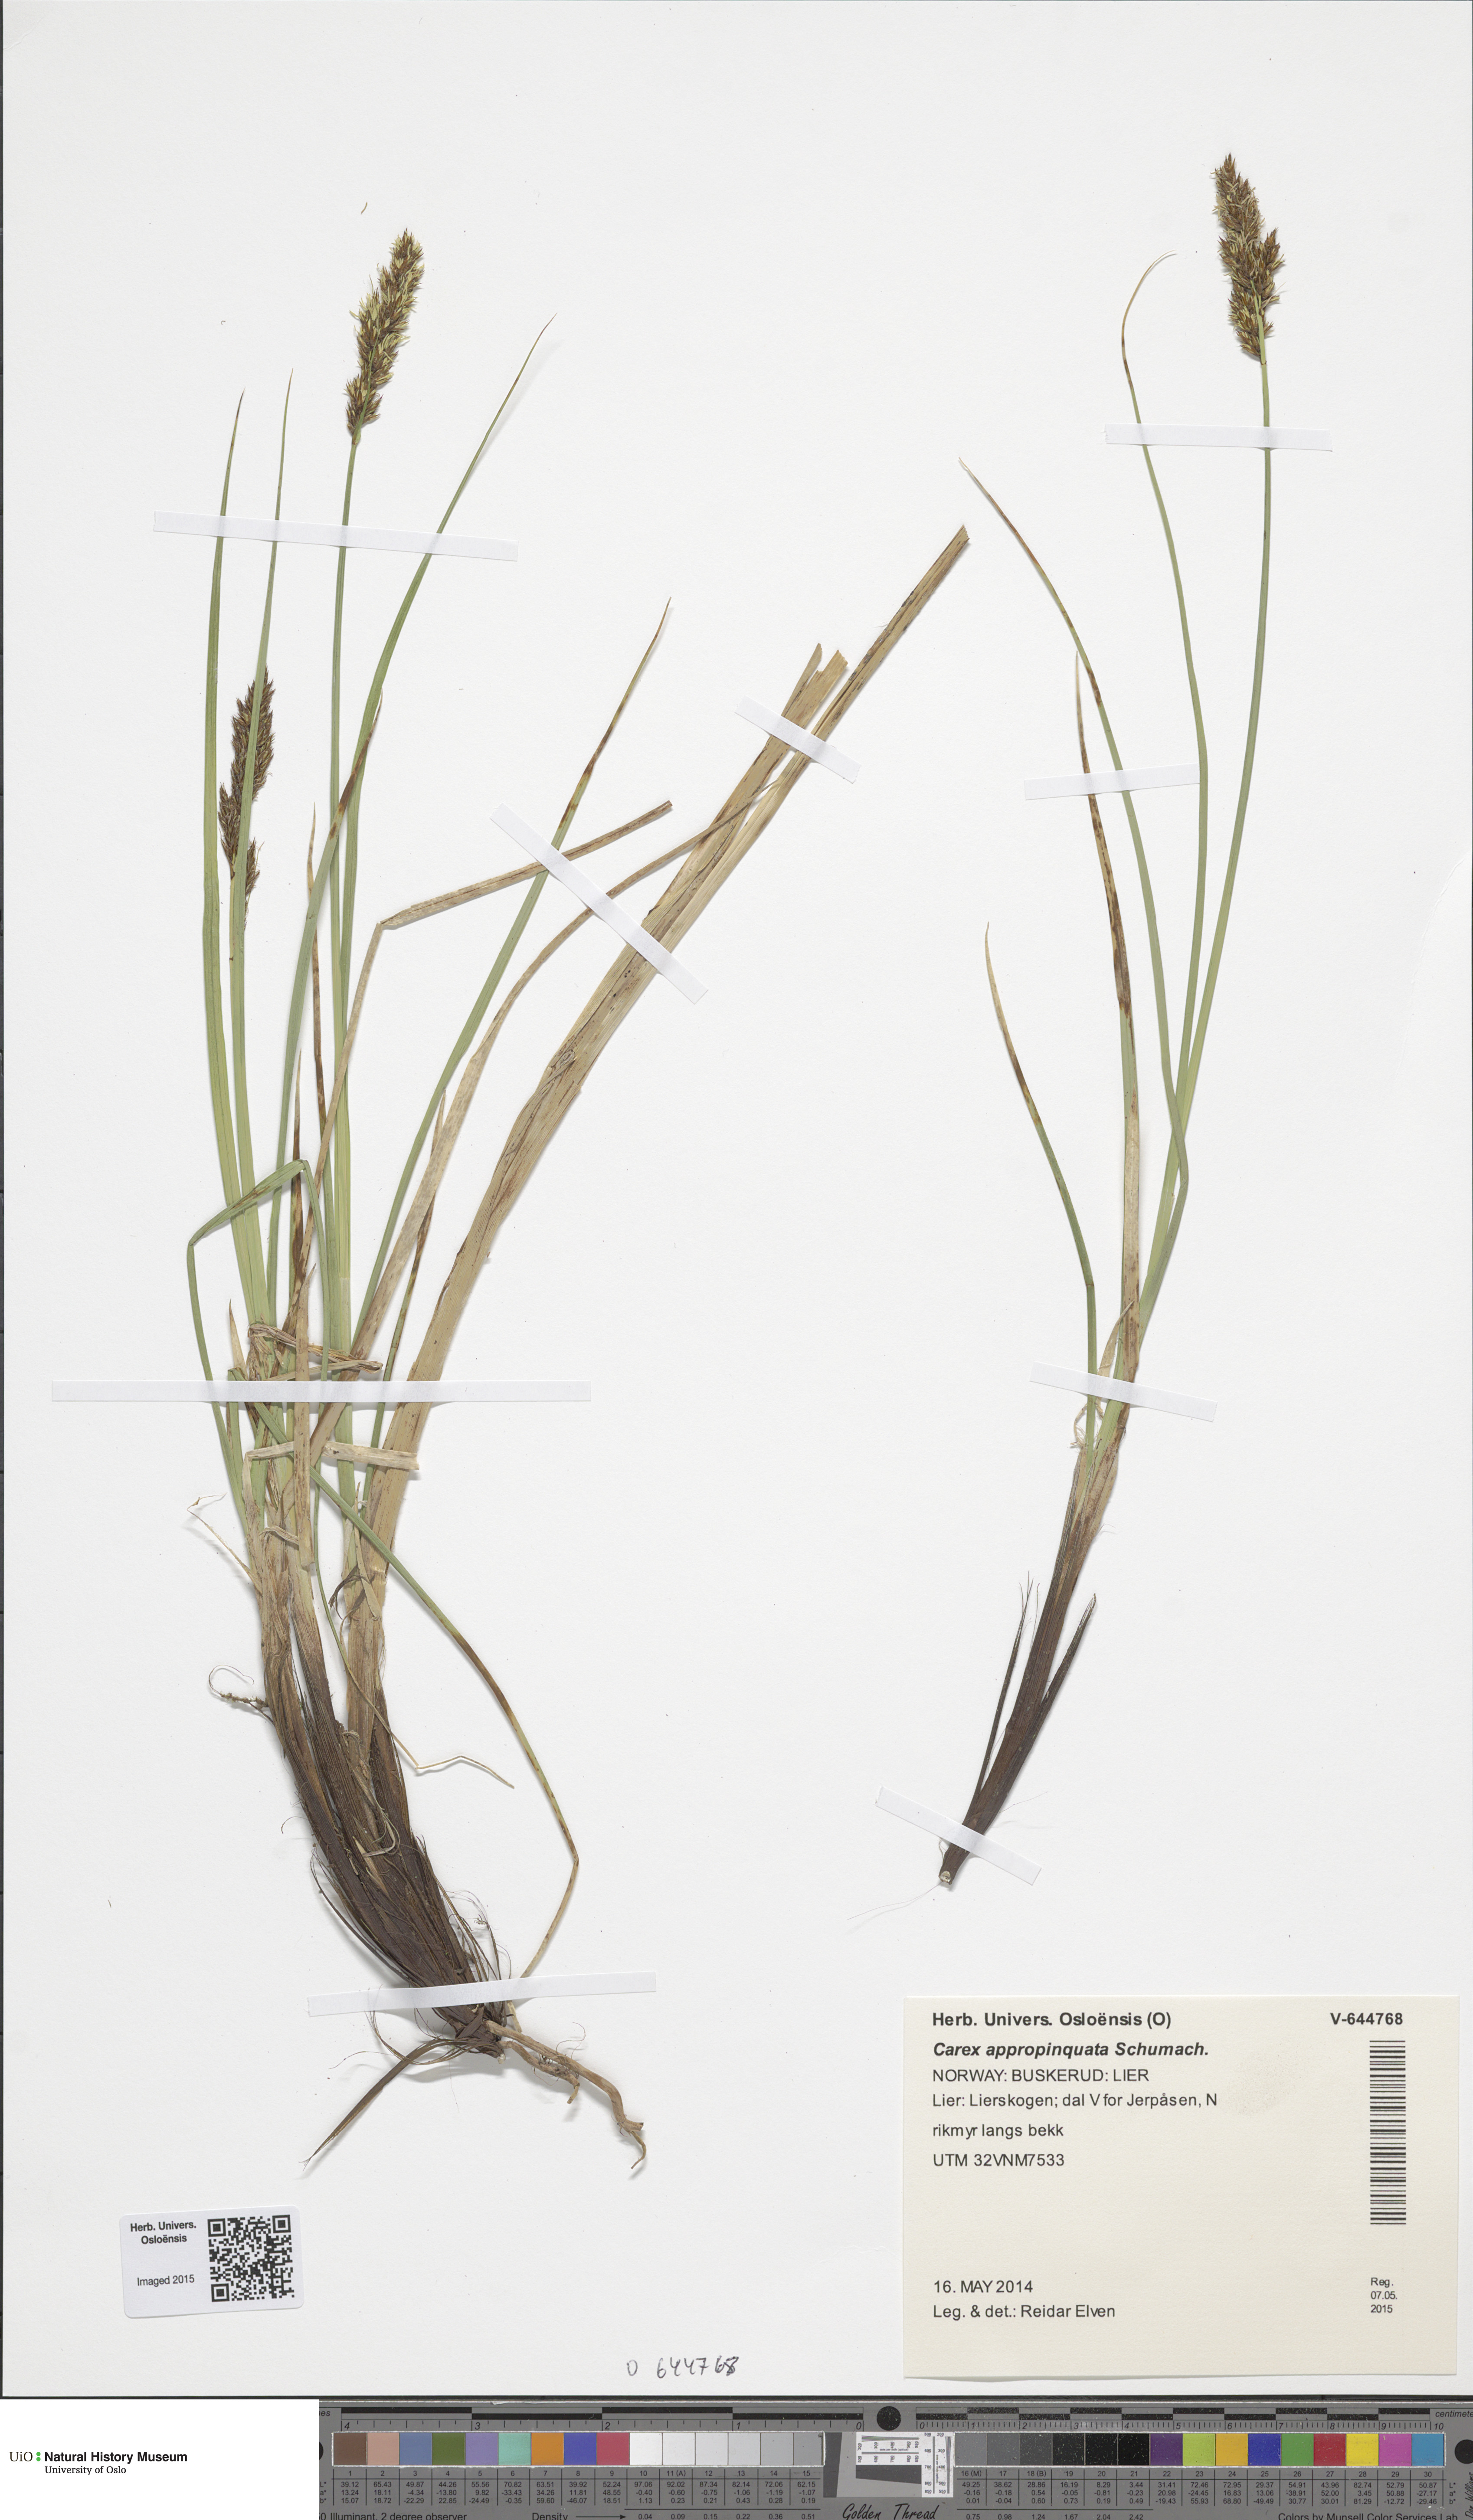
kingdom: Plantae
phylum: Tracheophyta
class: Liliopsida
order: Poales
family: Cyperaceae
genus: Carex
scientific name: Carex appropinquata
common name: Fibrous tussock-sedge
